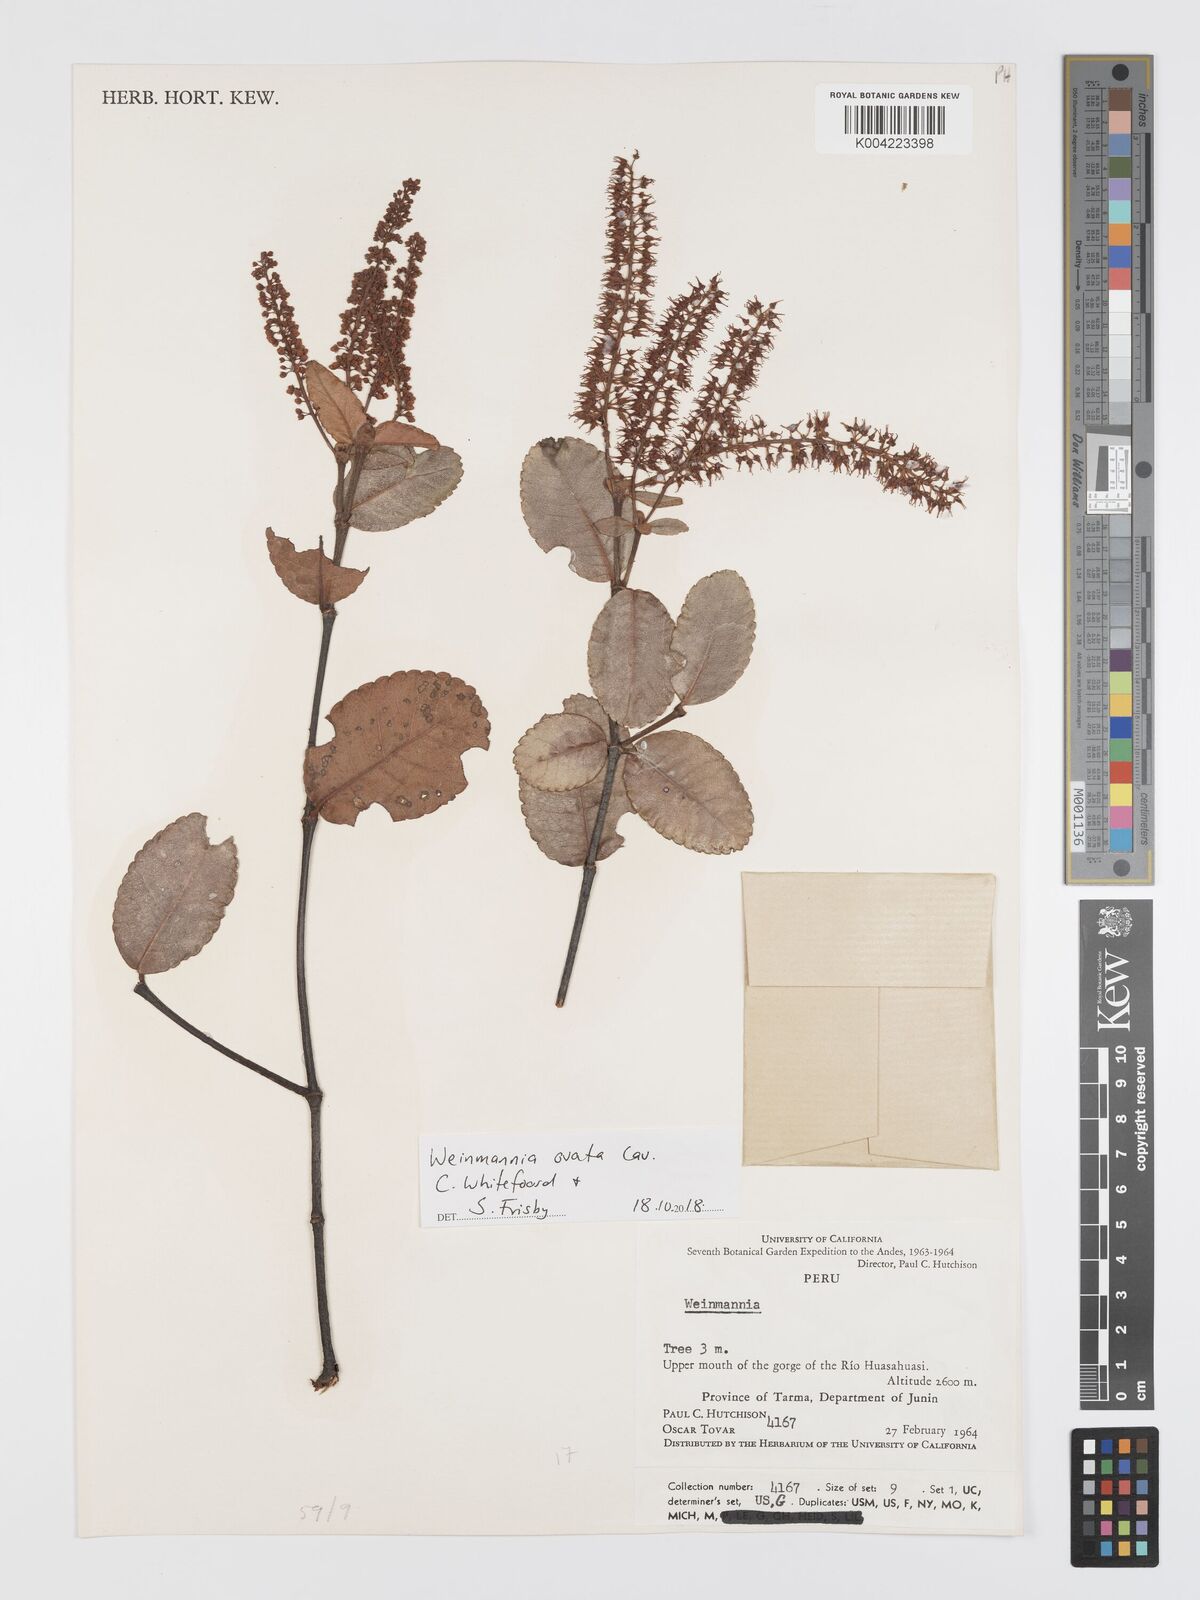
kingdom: Plantae
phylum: Tracheophyta
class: Magnoliopsida
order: Oxalidales
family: Cunoniaceae
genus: Weinmannia
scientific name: Weinmannia ovata
